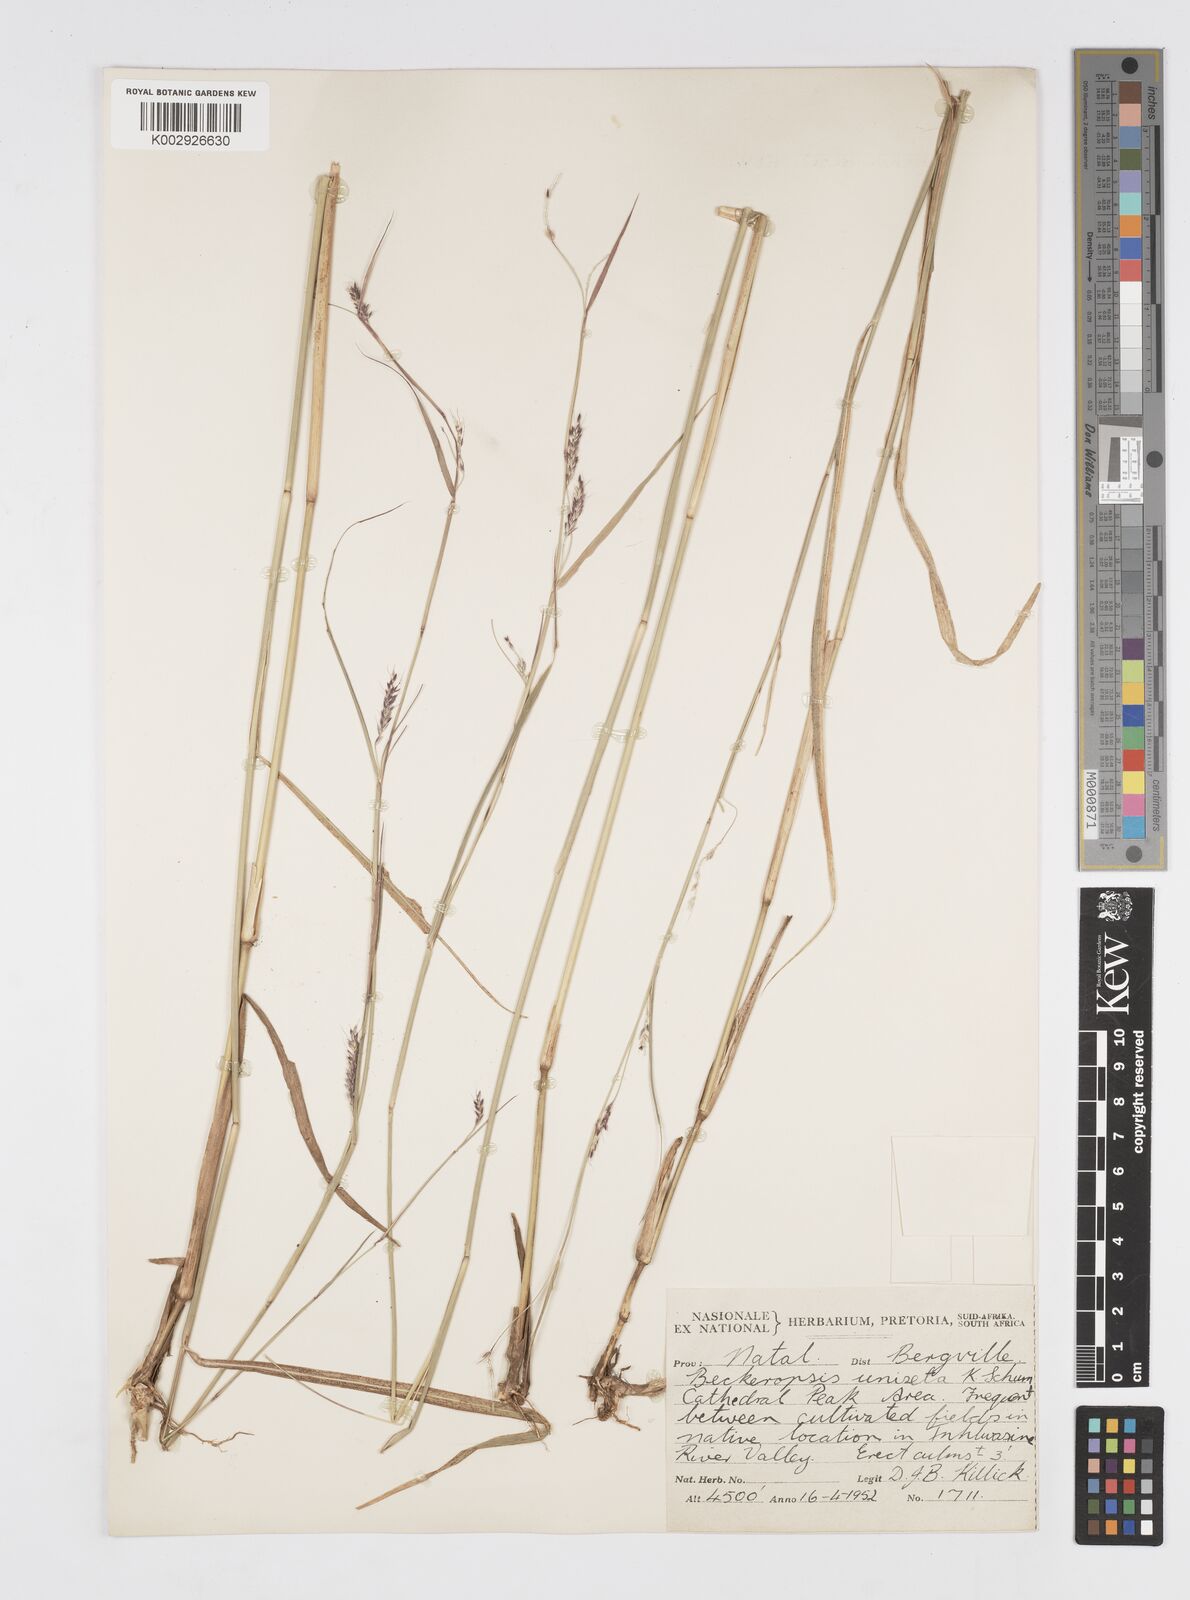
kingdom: Plantae
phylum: Tracheophyta
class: Liliopsida
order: Poales
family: Poaceae
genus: Cenchrus
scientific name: Cenchrus unisetus
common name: Natal grass
